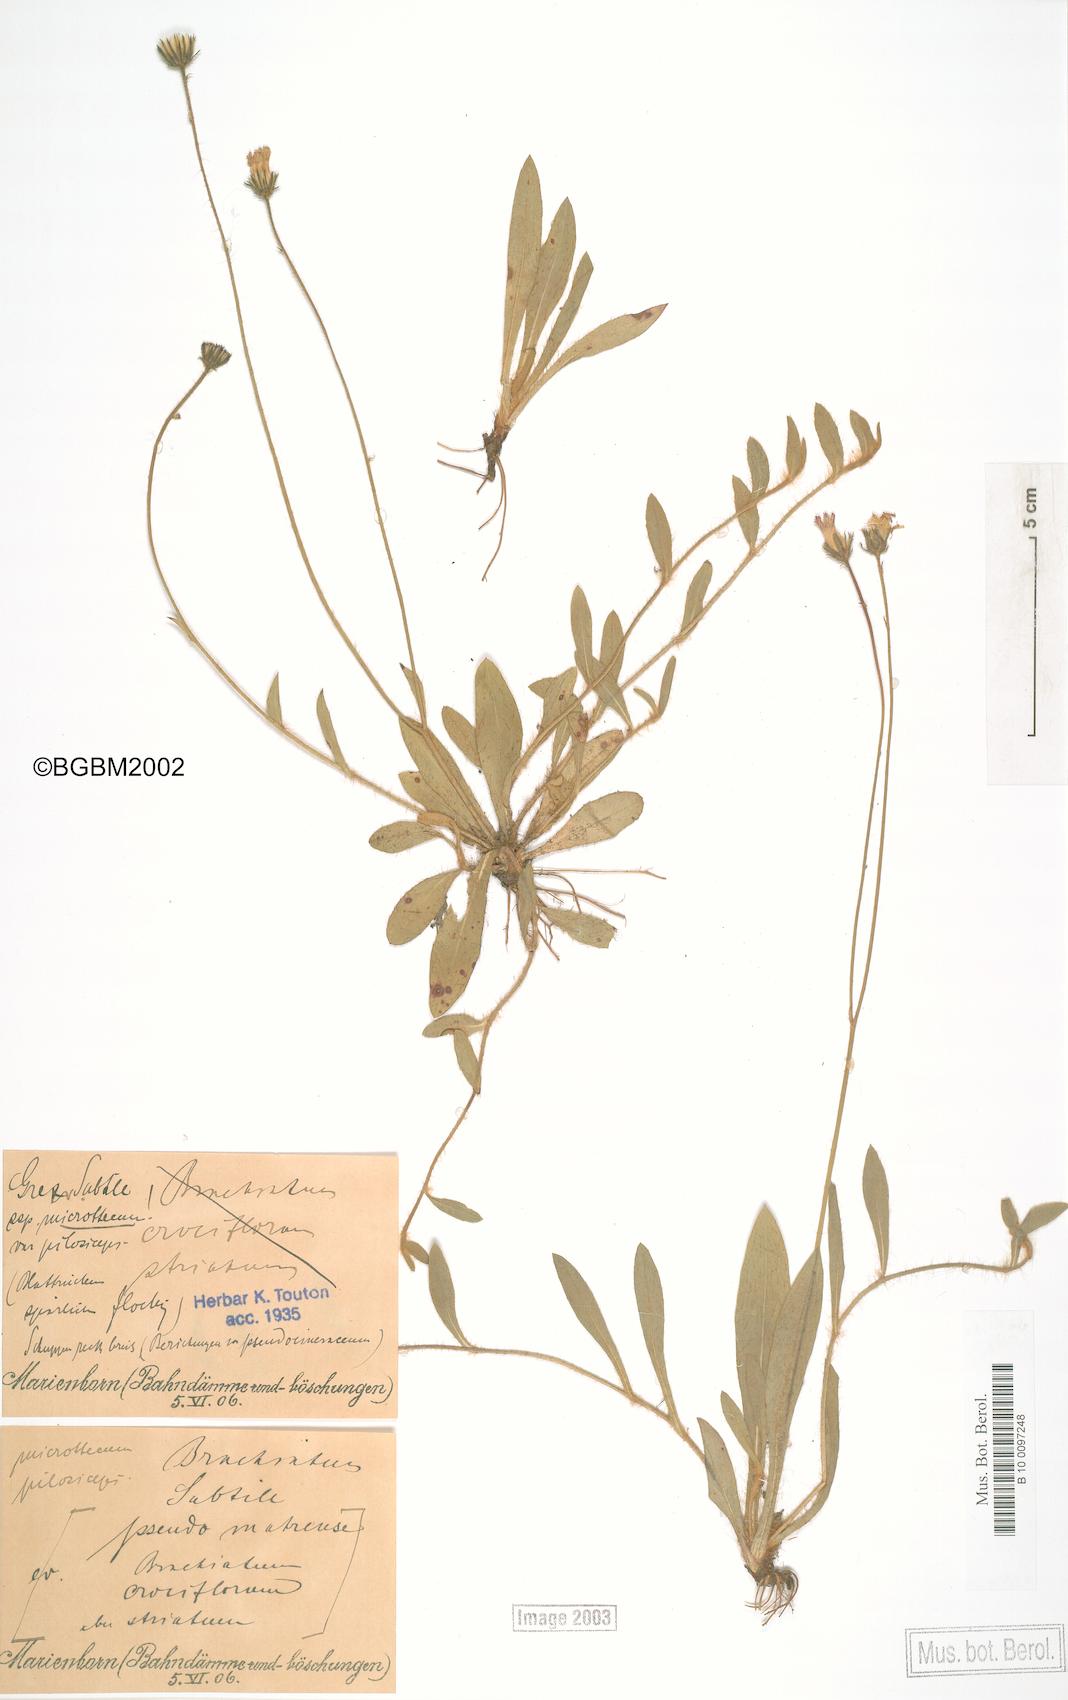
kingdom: Plantae
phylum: Tracheophyta
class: Magnoliopsida
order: Asterales
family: Asteraceae
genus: Pilosella
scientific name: Pilosella acutifolia
